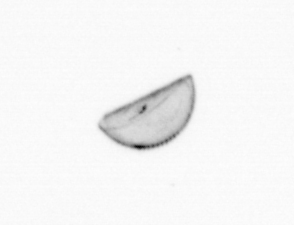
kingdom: Chromista
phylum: Ochrophyta
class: Bacillariophyceae
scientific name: Bacillariophyceae
